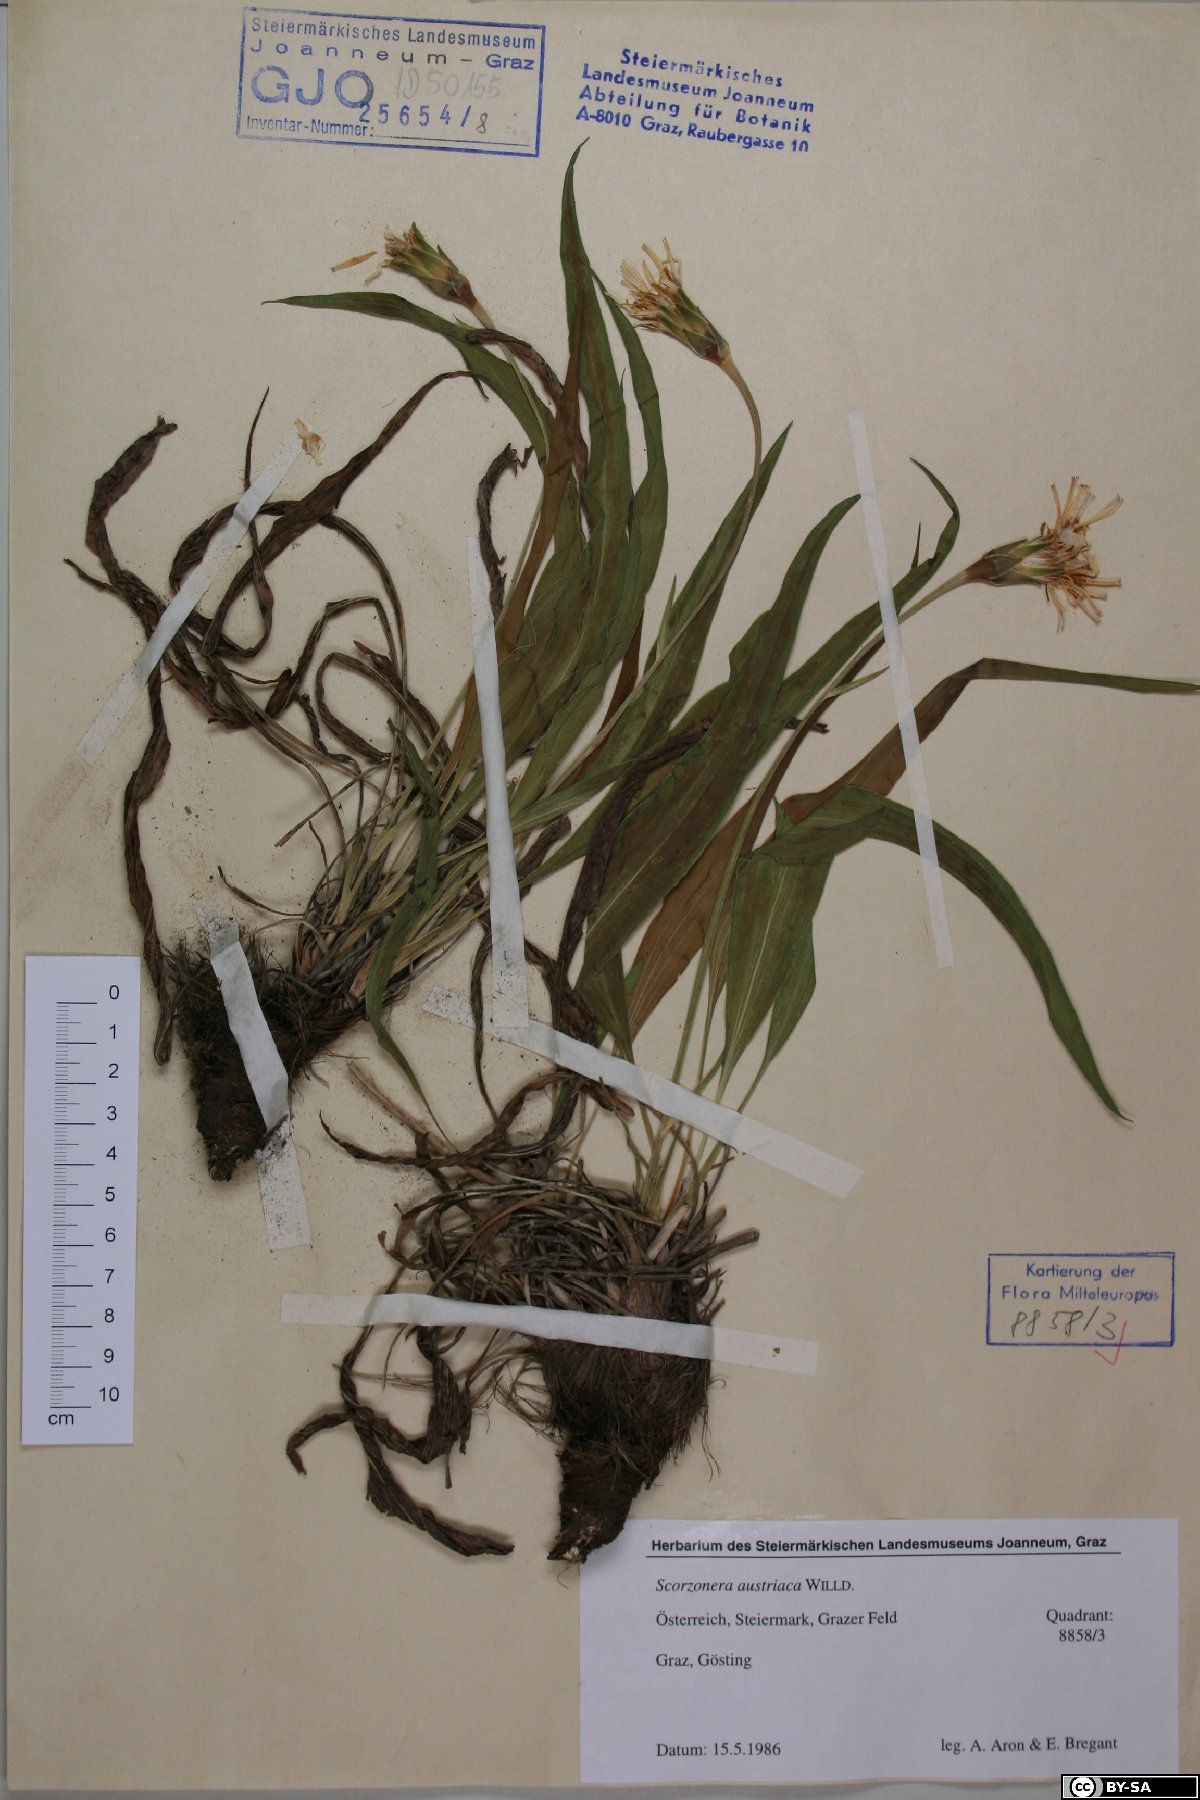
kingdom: Plantae
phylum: Tracheophyta
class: Magnoliopsida
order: Asterales
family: Asteraceae
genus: Takhtajaniantha
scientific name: Takhtajaniantha austriaca
